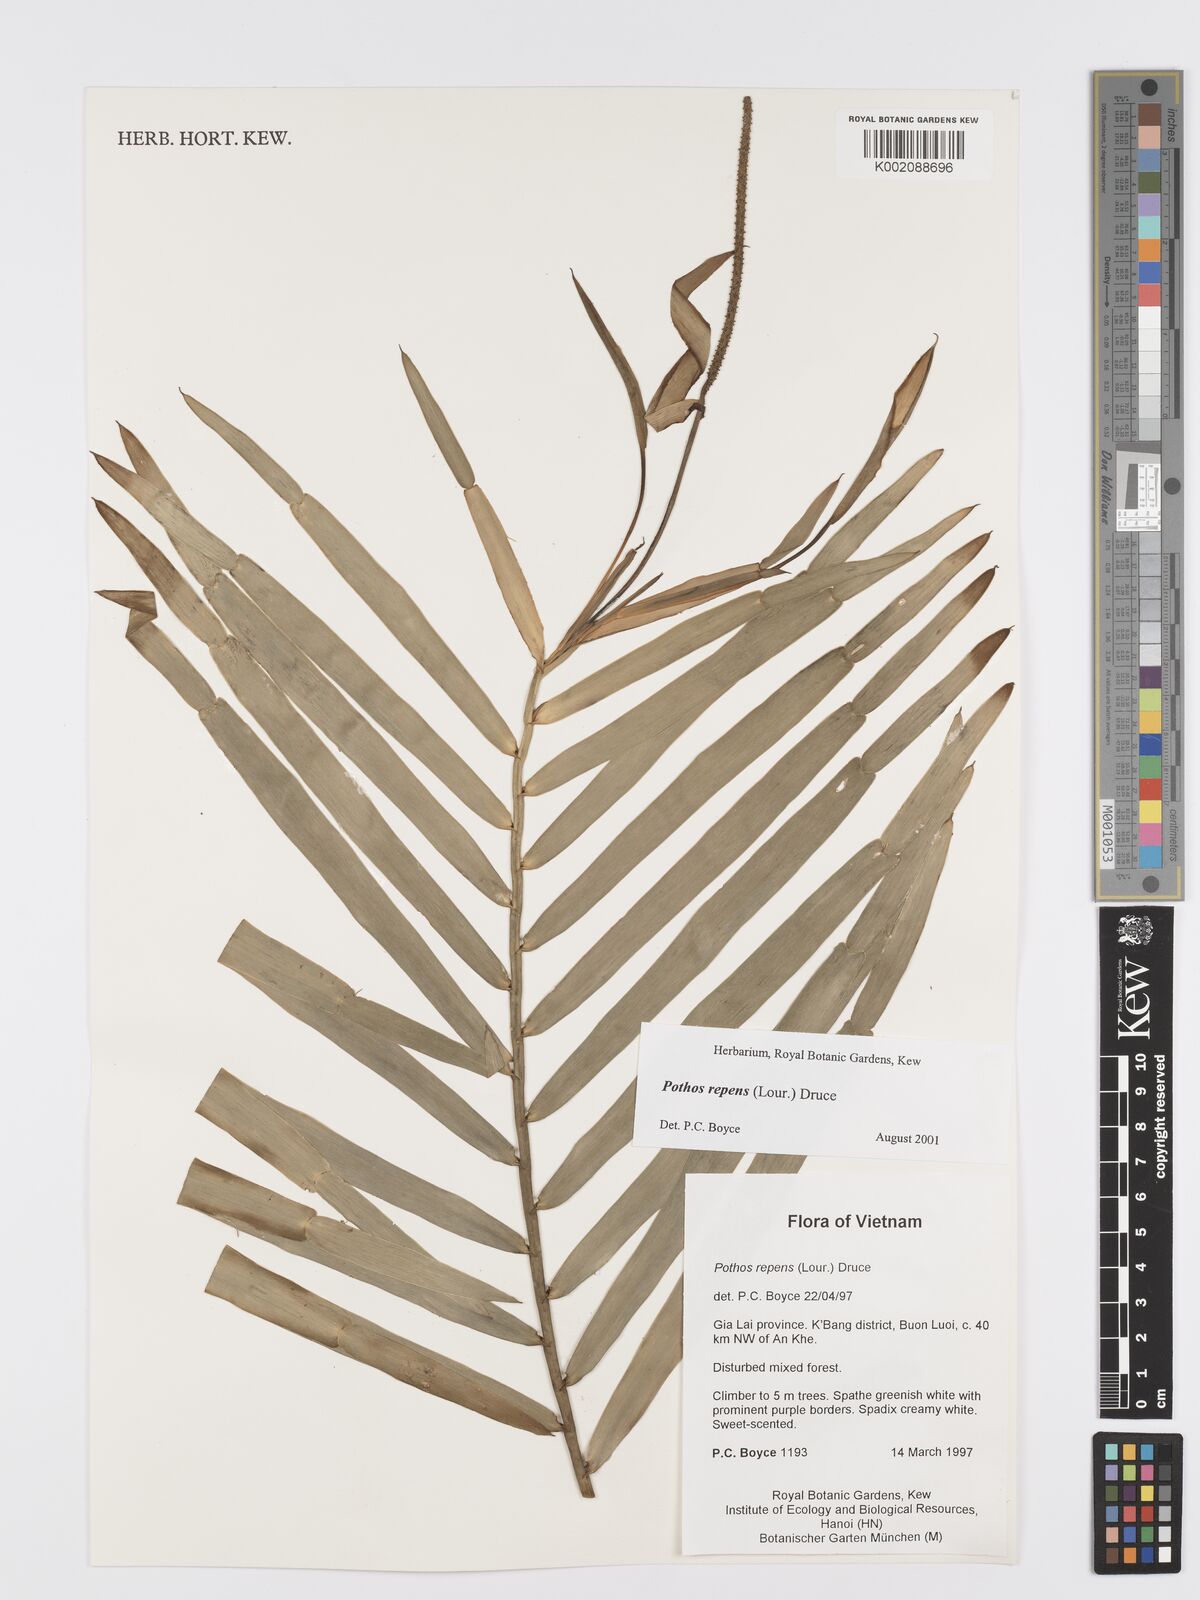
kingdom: Plantae
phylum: Tracheophyta
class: Liliopsida
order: Alismatales
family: Araceae
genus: Pothos
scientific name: Pothos repens
